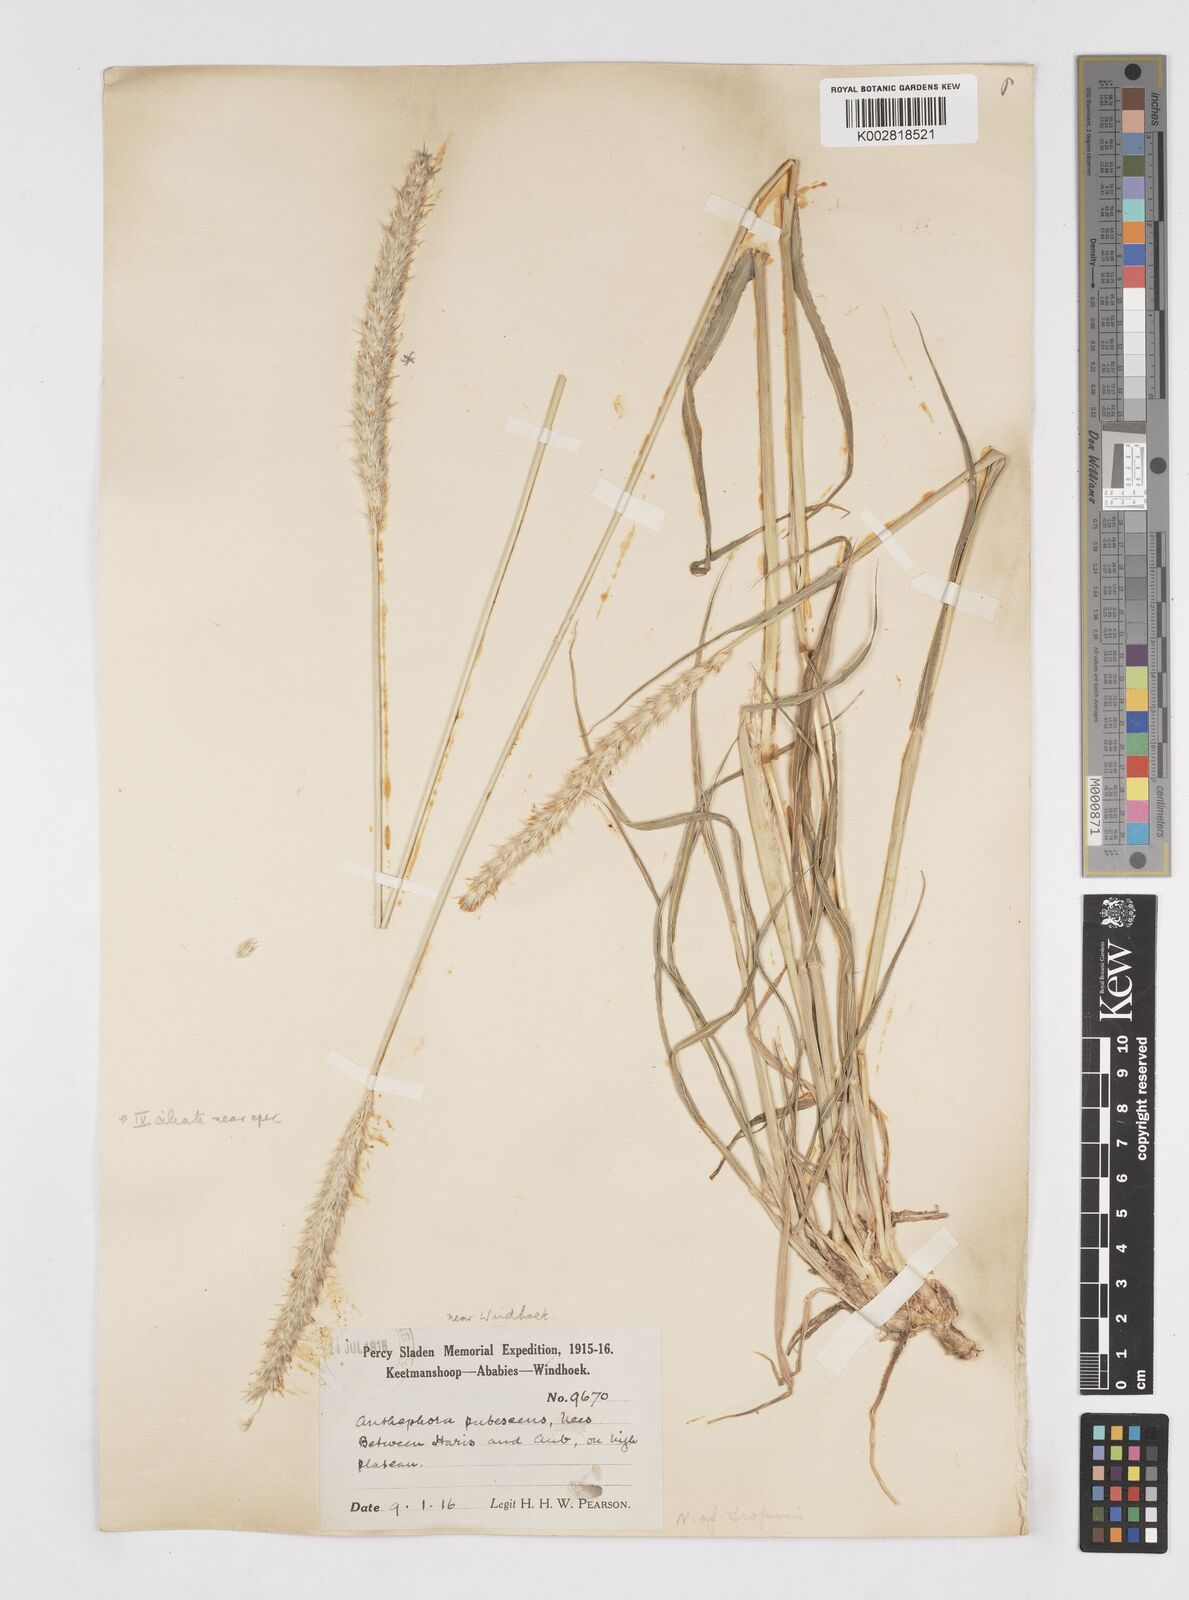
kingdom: Plantae
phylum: Tracheophyta
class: Liliopsida
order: Poales
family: Poaceae
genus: Anthephora
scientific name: Anthephora pubescens
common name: Wool grass
